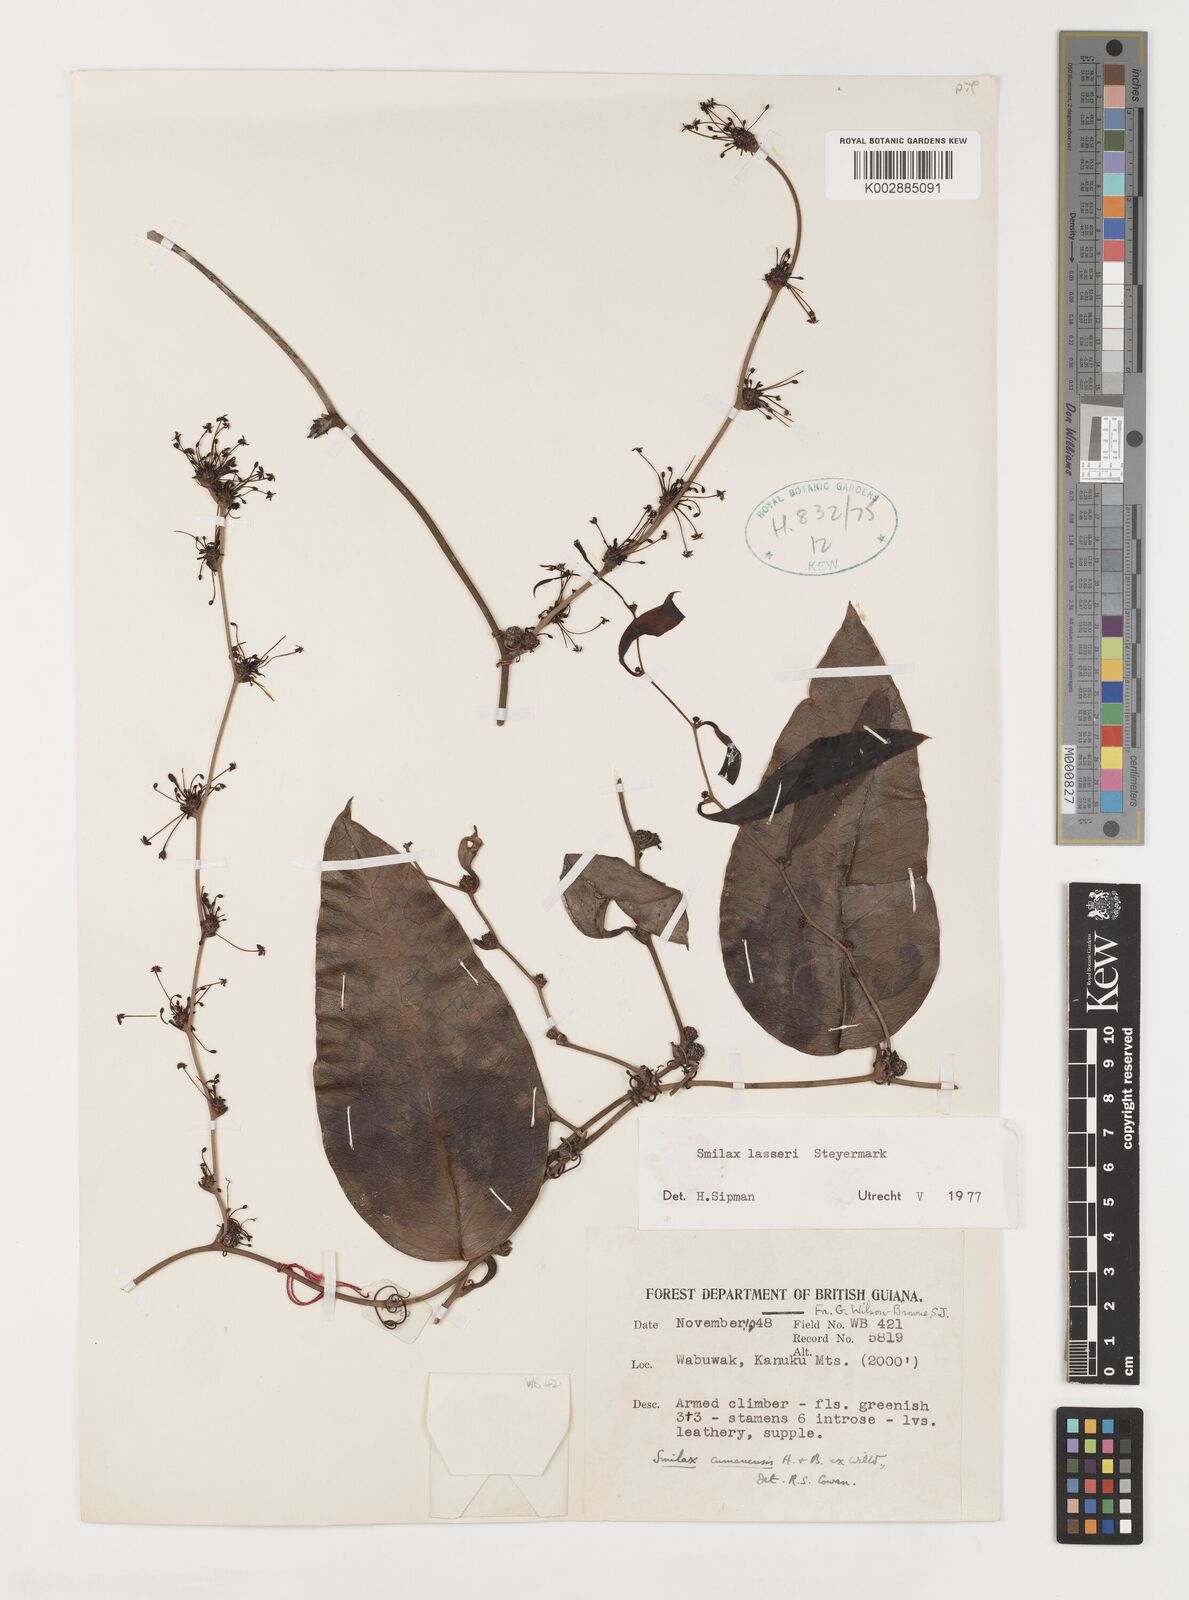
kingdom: Plantae
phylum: Tracheophyta
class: Liliopsida
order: Liliales
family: Smilacaceae
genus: Smilax
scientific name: Smilax domingensis
